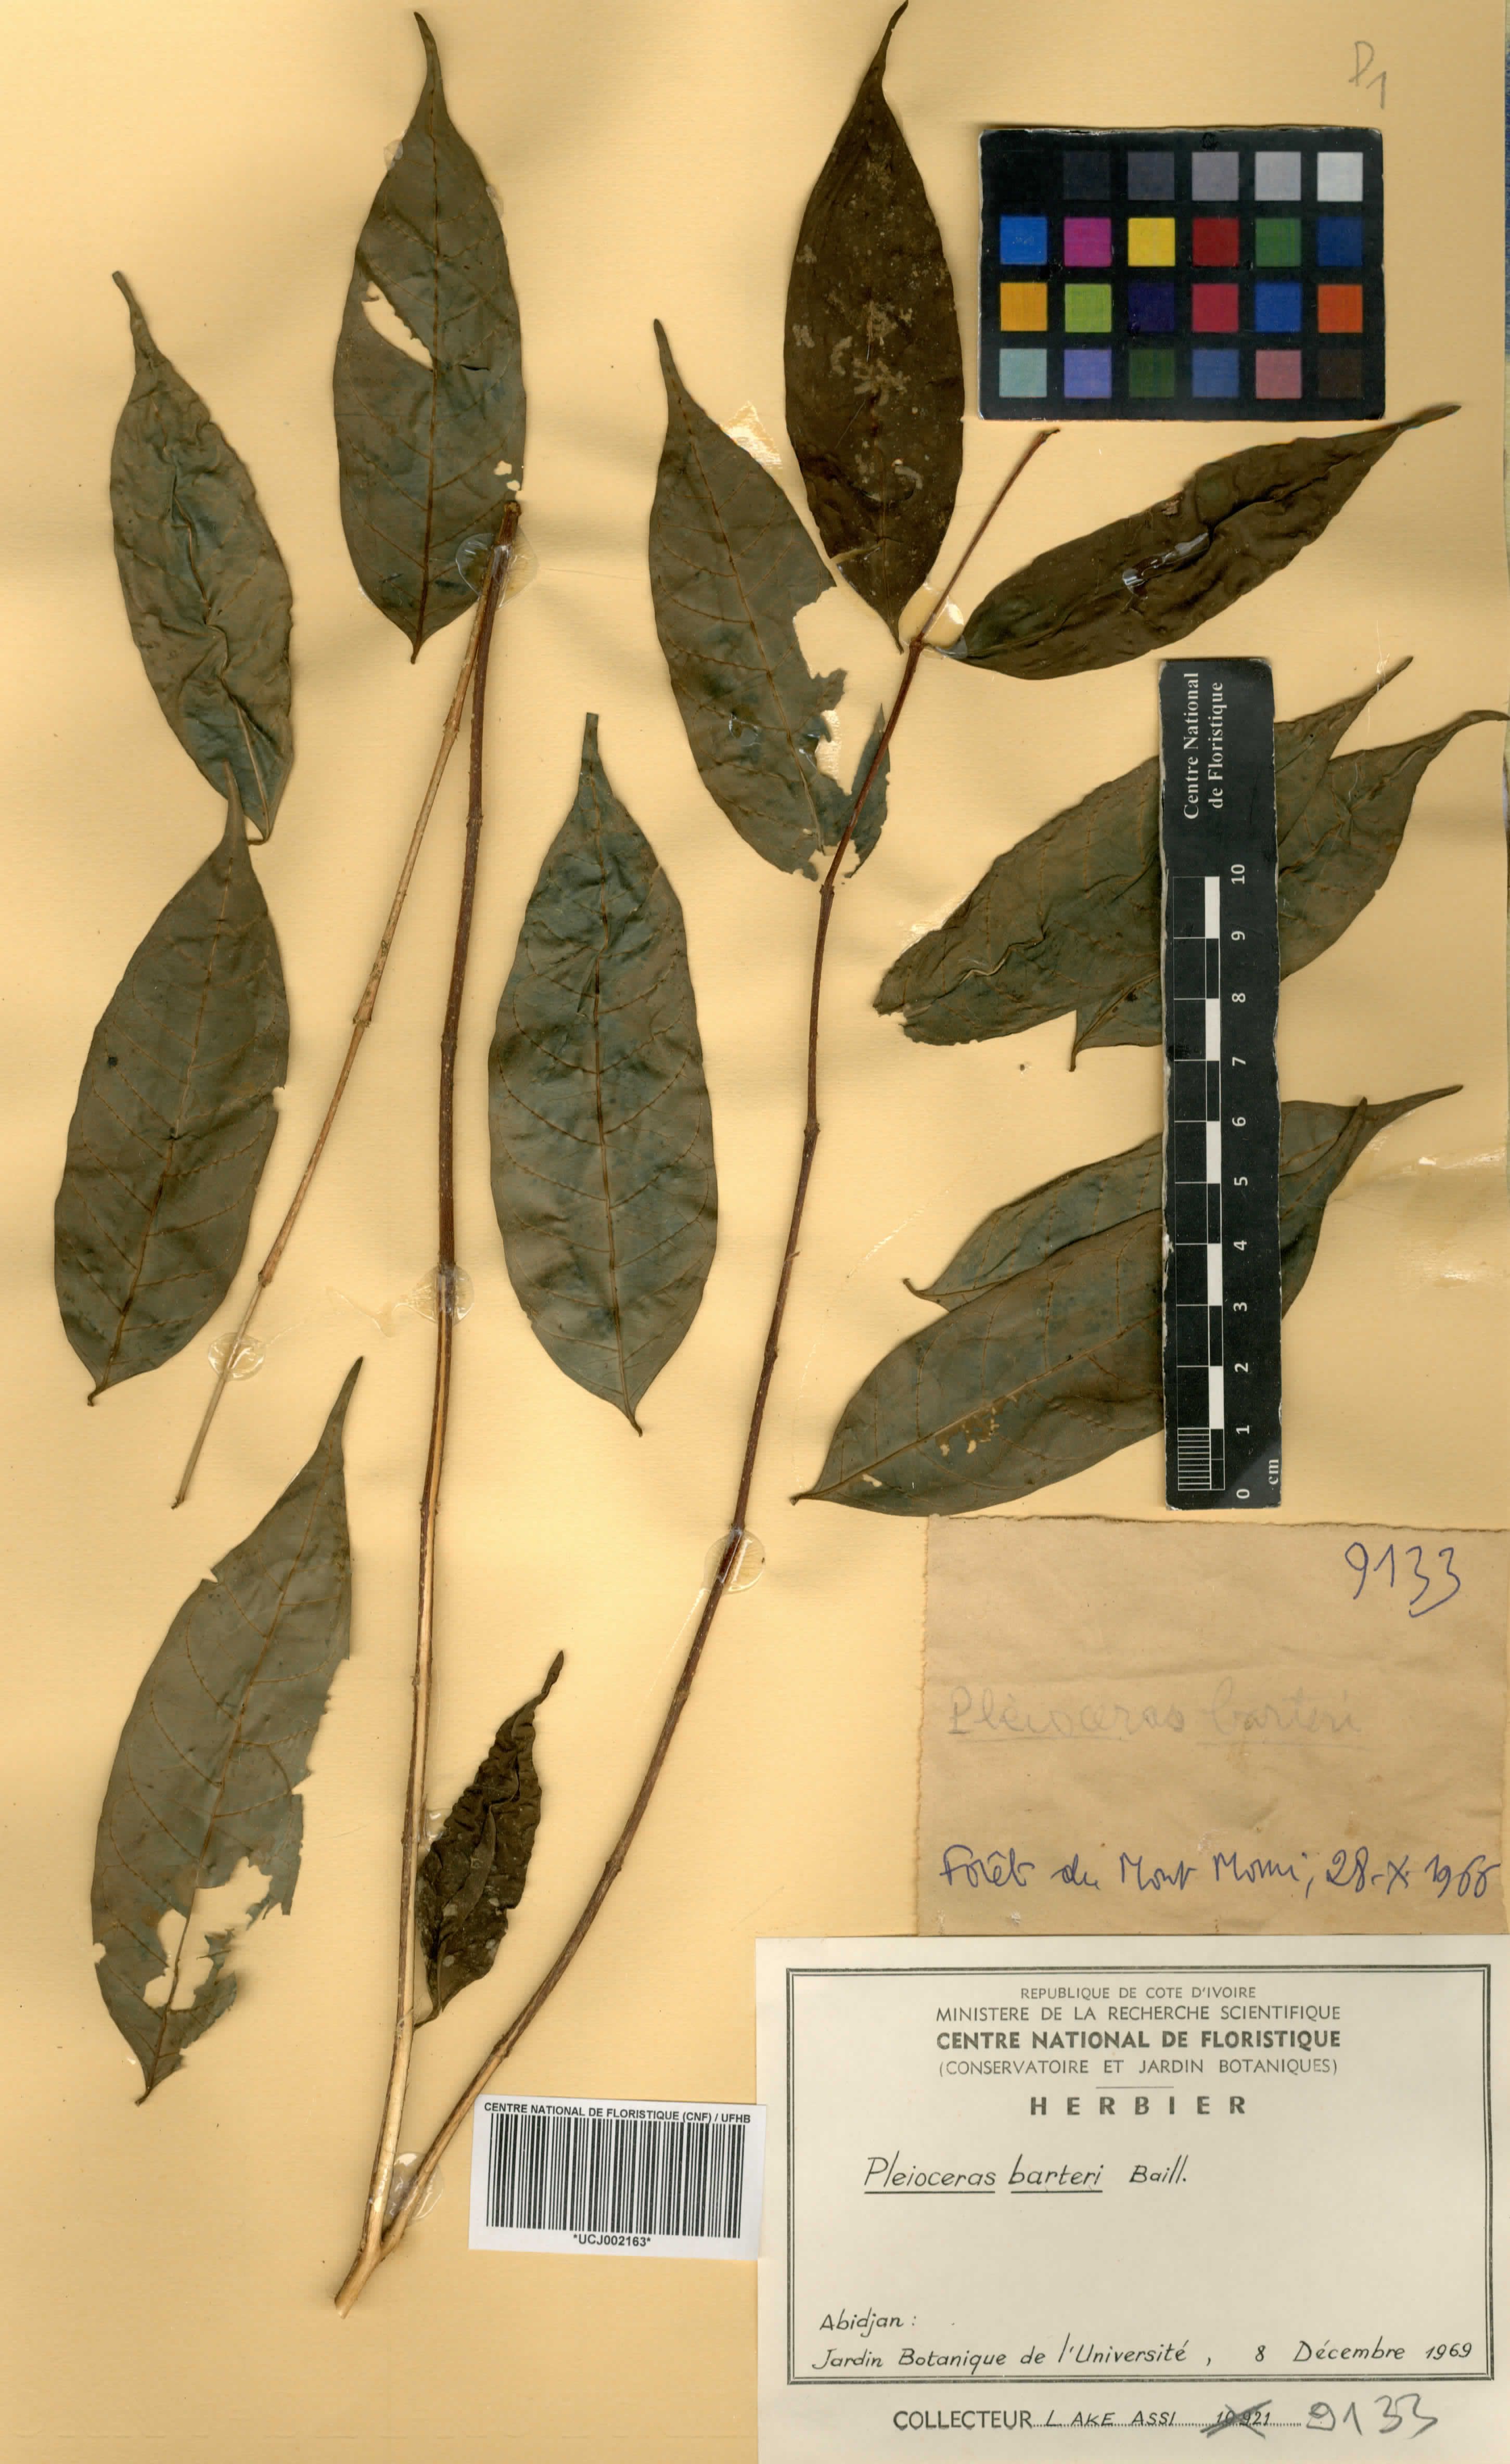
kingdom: Plantae
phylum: Tracheophyta
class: Magnoliopsida
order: Gentianales
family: Apocynaceae
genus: Pleioceras
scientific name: Pleioceras barteri
